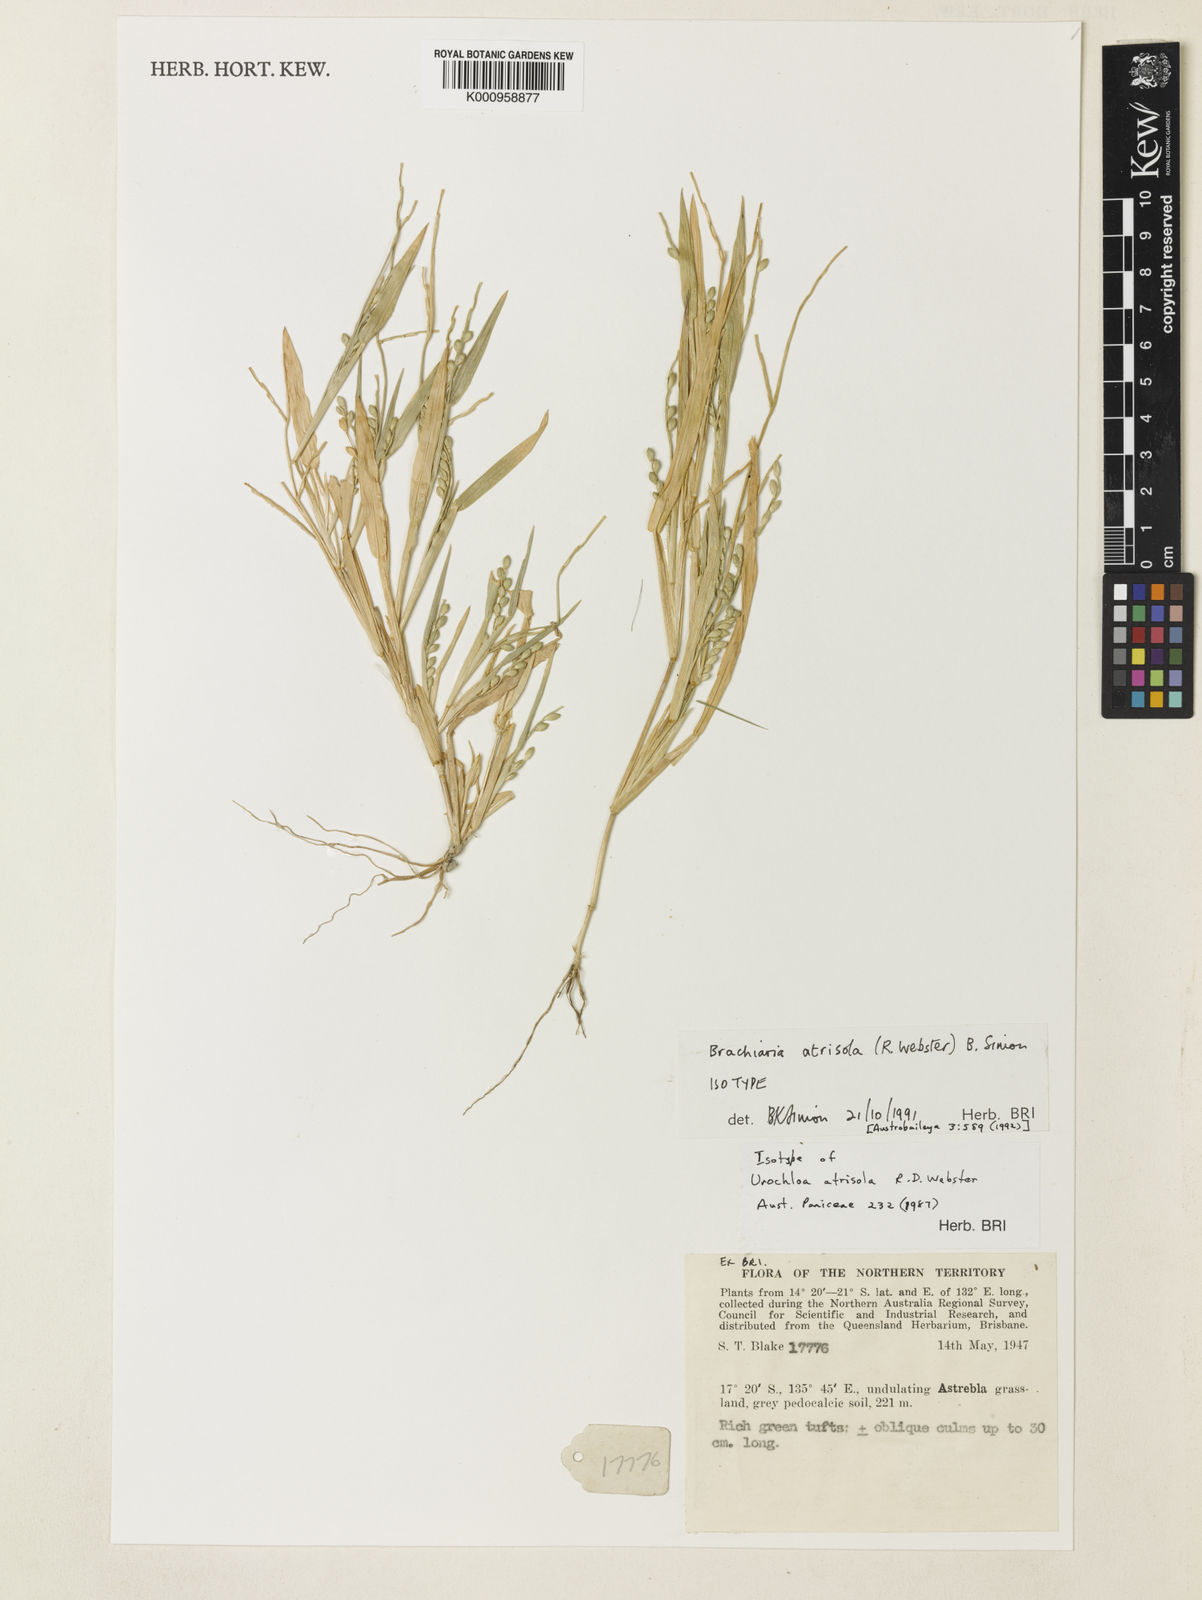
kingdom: Plantae
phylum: Tracheophyta
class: Liliopsida
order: Poales
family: Poaceae
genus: Urochloa
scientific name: Urochloa atrisola
